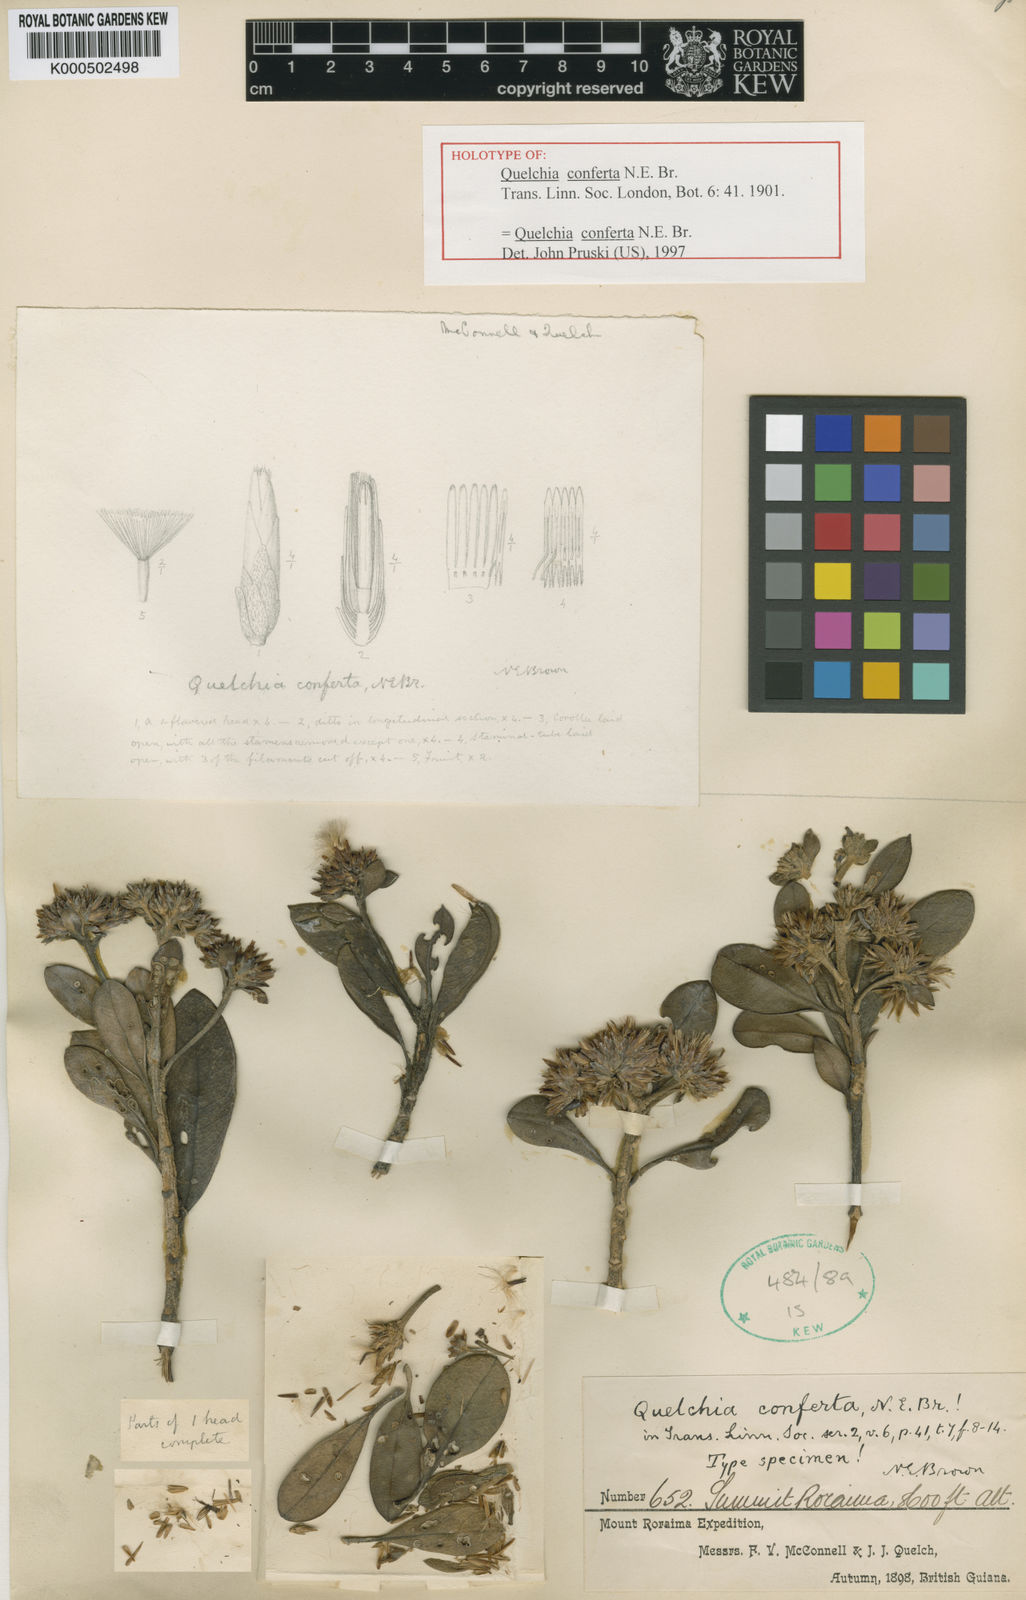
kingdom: Plantae
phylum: Tracheophyta
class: Magnoliopsida
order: Asterales
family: Asteraceae
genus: Quelchia
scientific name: Quelchia conferta
